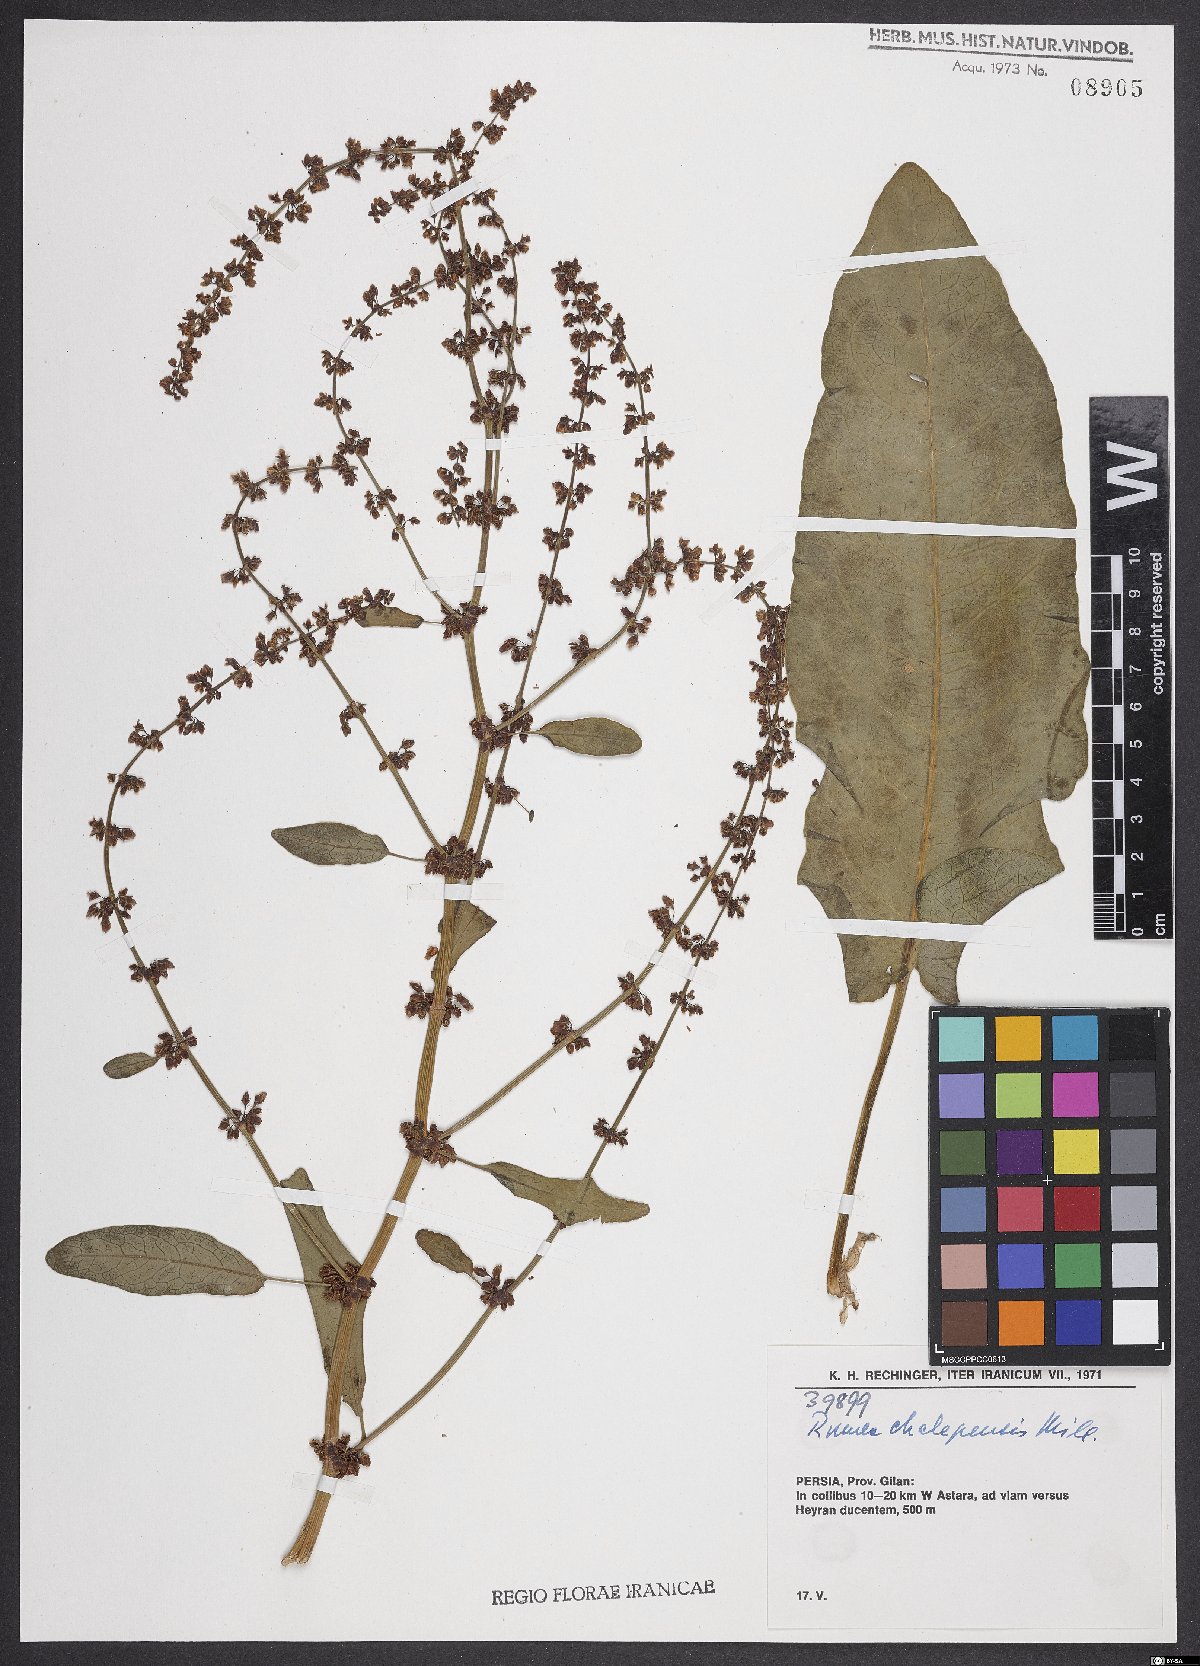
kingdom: Plantae
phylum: Tracheophyta
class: Magnoliopsida
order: Caryophyllales
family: Polygonaceae
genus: Rumex
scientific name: Rumex chalepensis
